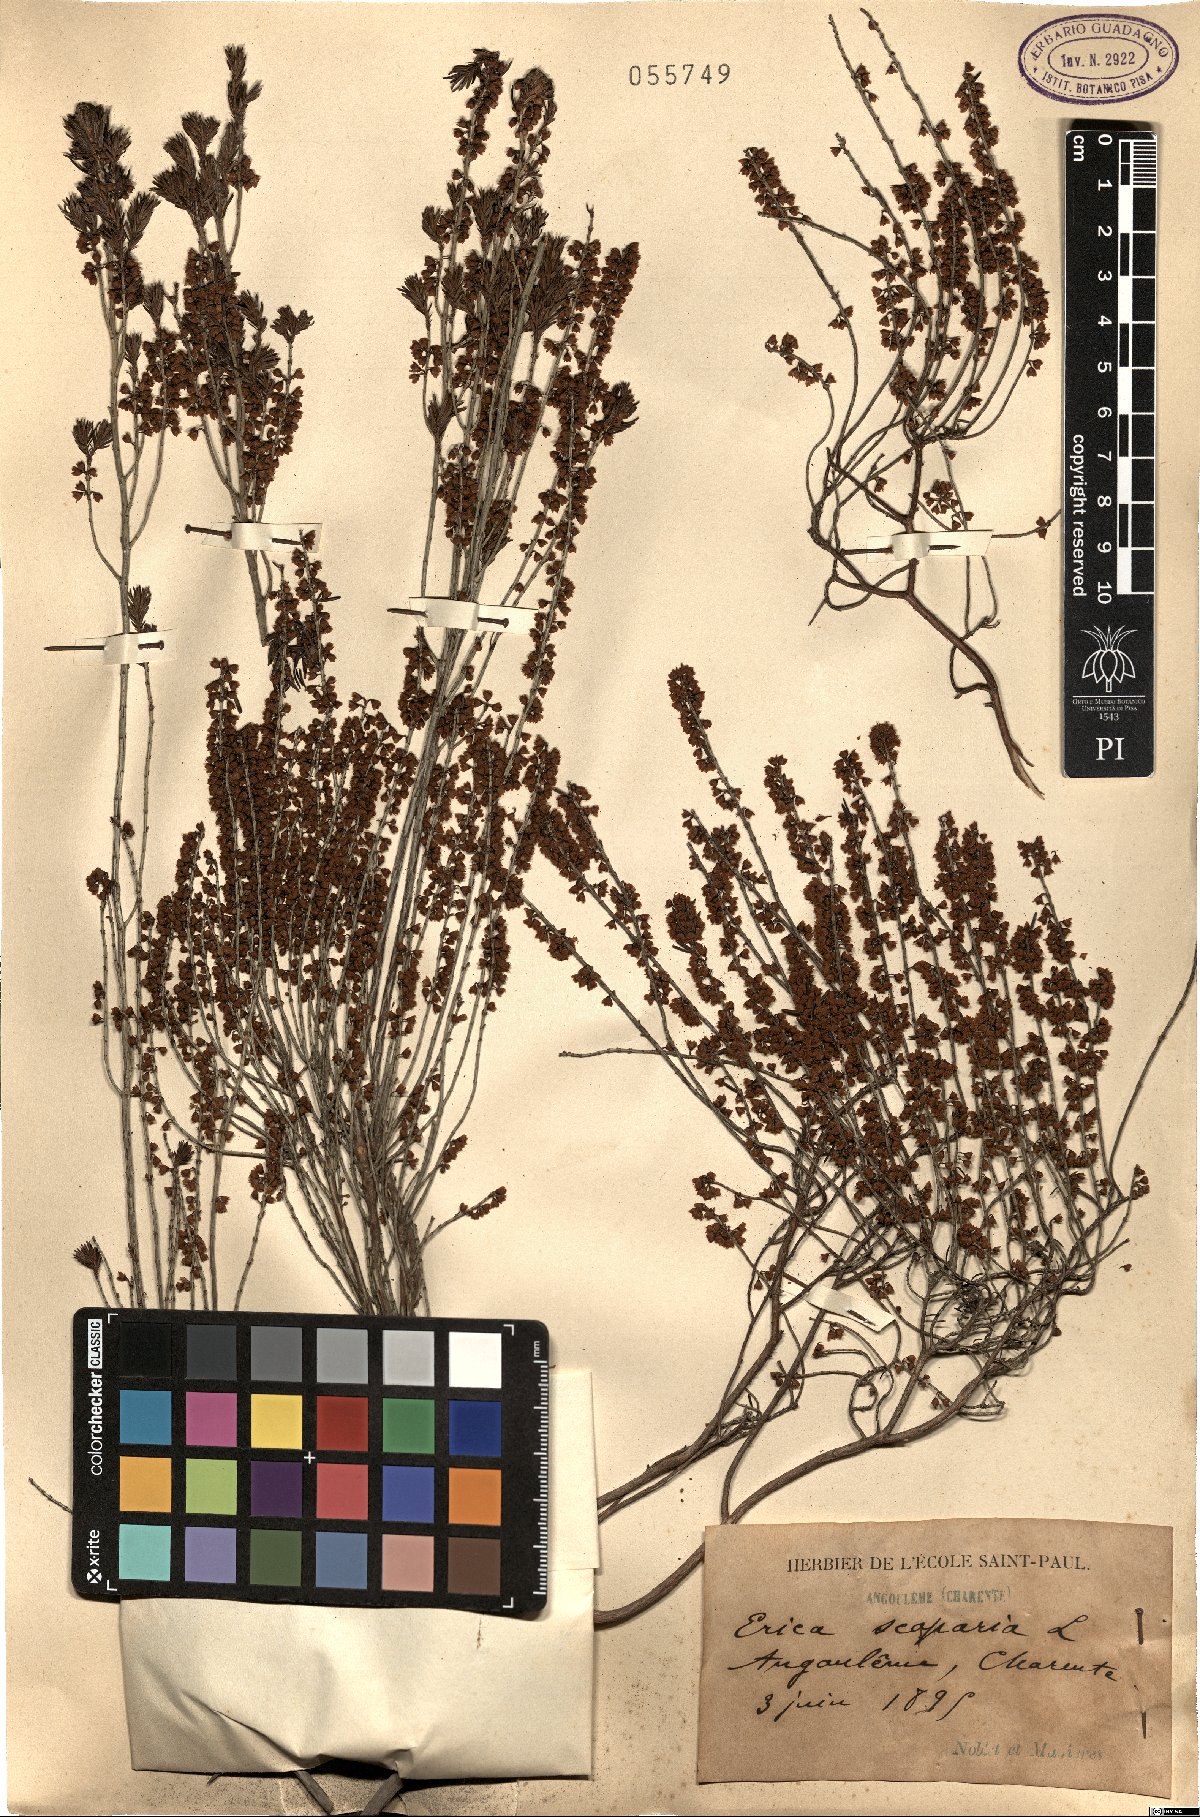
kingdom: Plantae
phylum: Tracheophyta
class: Magnoliopsida
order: Ericales
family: Ericaceae
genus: Erica
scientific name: Erica scoparia
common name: Green heather
